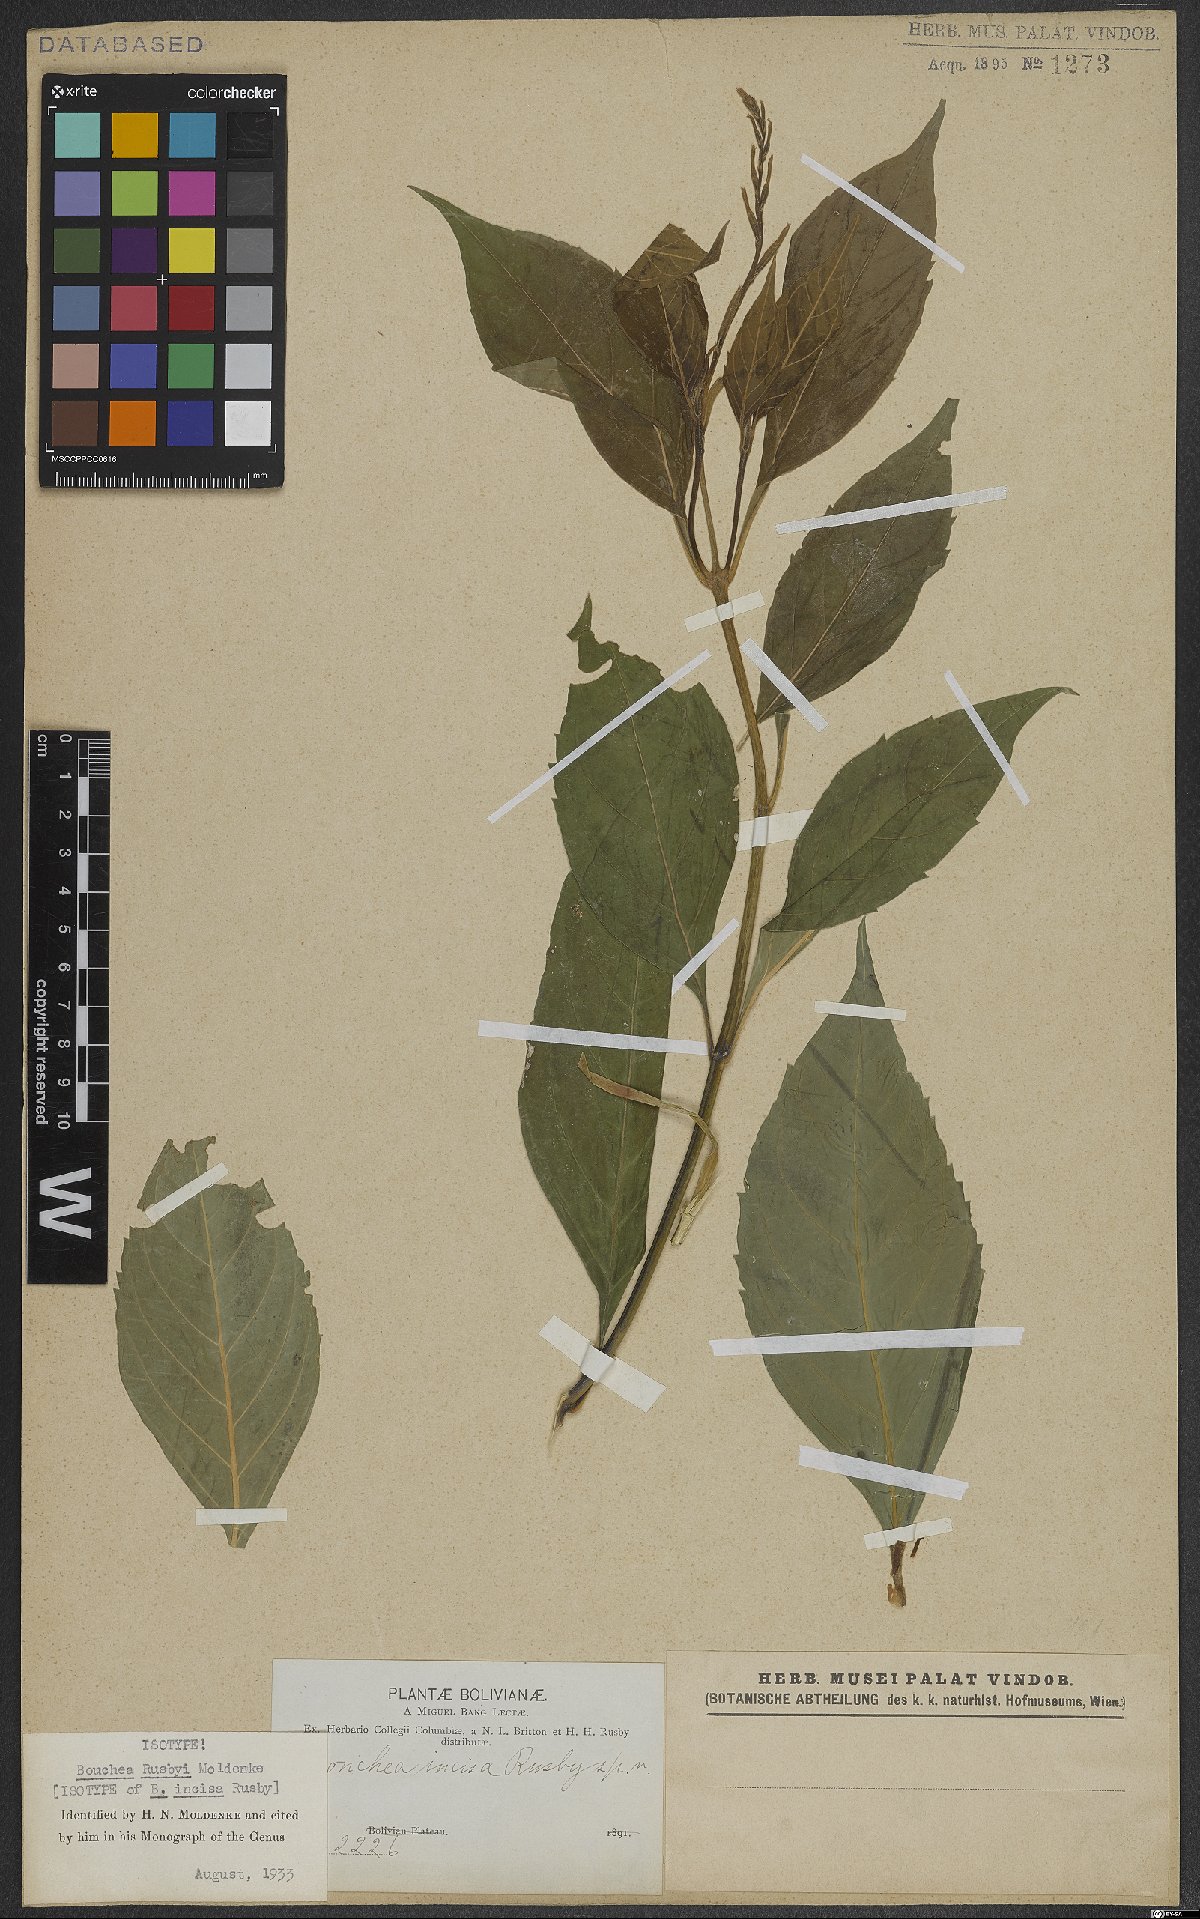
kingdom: Plantae
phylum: Tracheophyta
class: Magnoliopsida
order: Lamiales
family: Verbenaceae
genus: Bouchea
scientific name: Bouchea rusbyi
